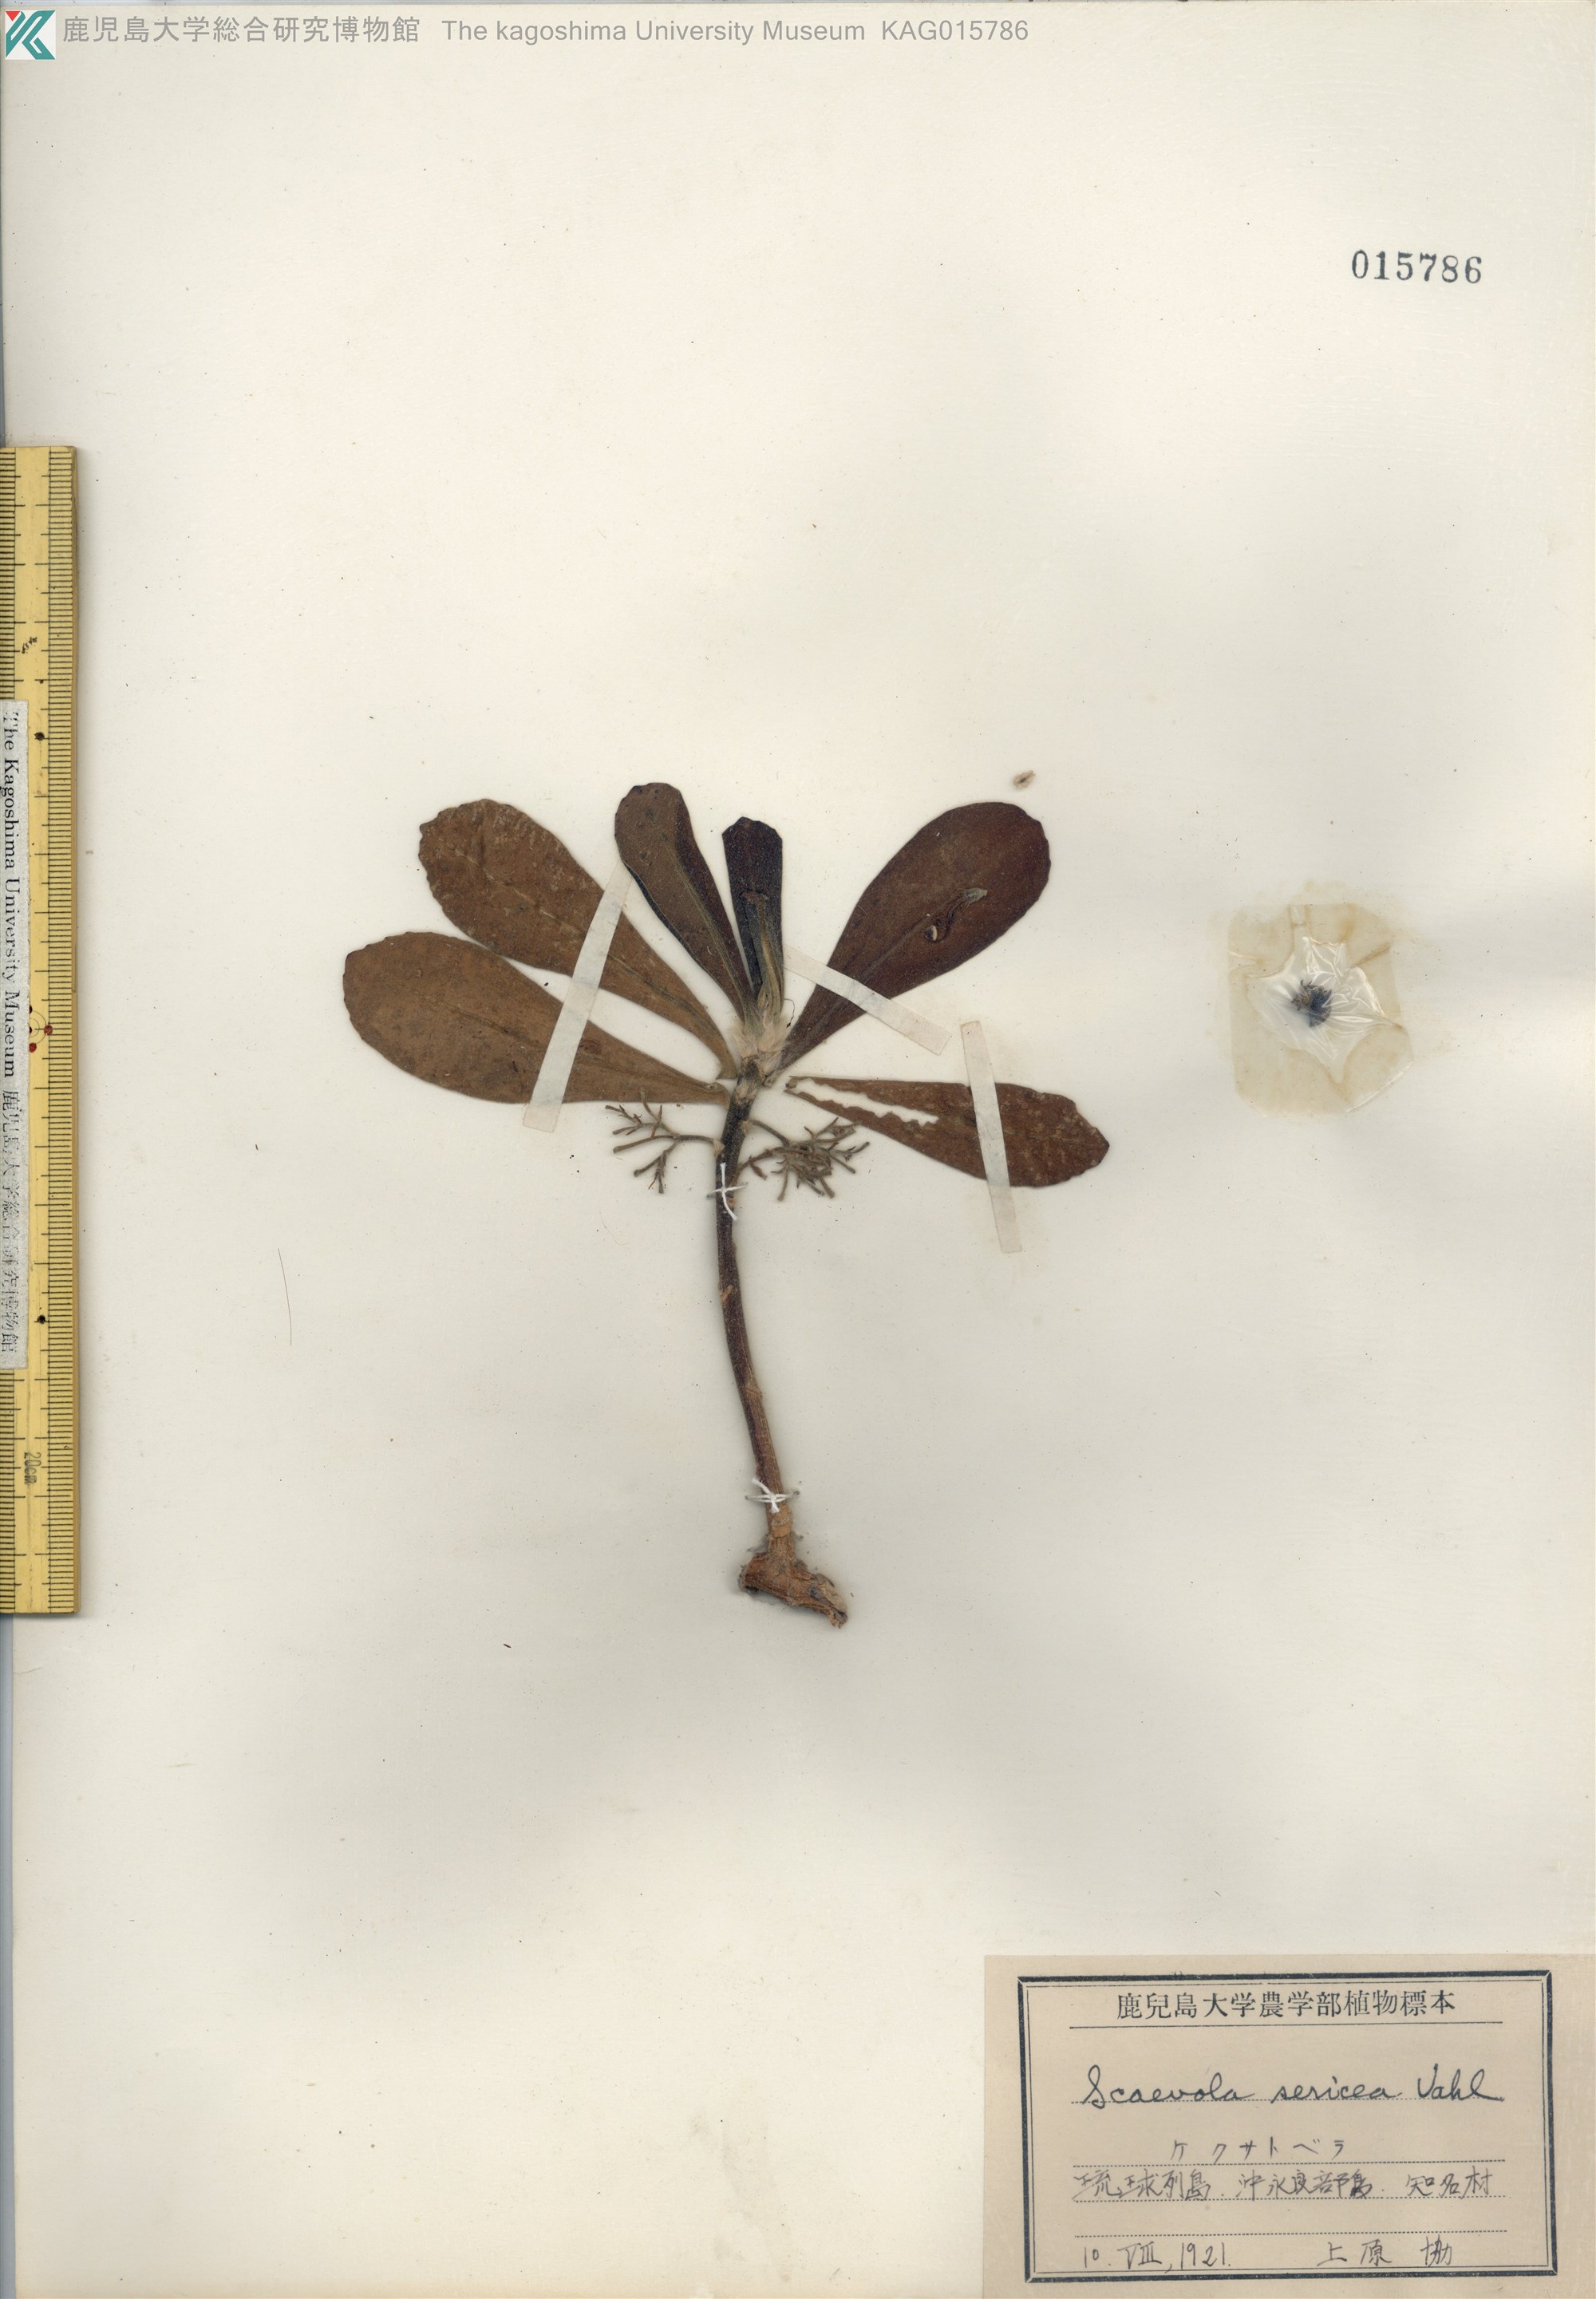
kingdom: Plantae
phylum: Tracheophyta
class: Magnoliopsida
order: Asterales
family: Goodeniaceae
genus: Scaevola
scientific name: Scaevola taccada
